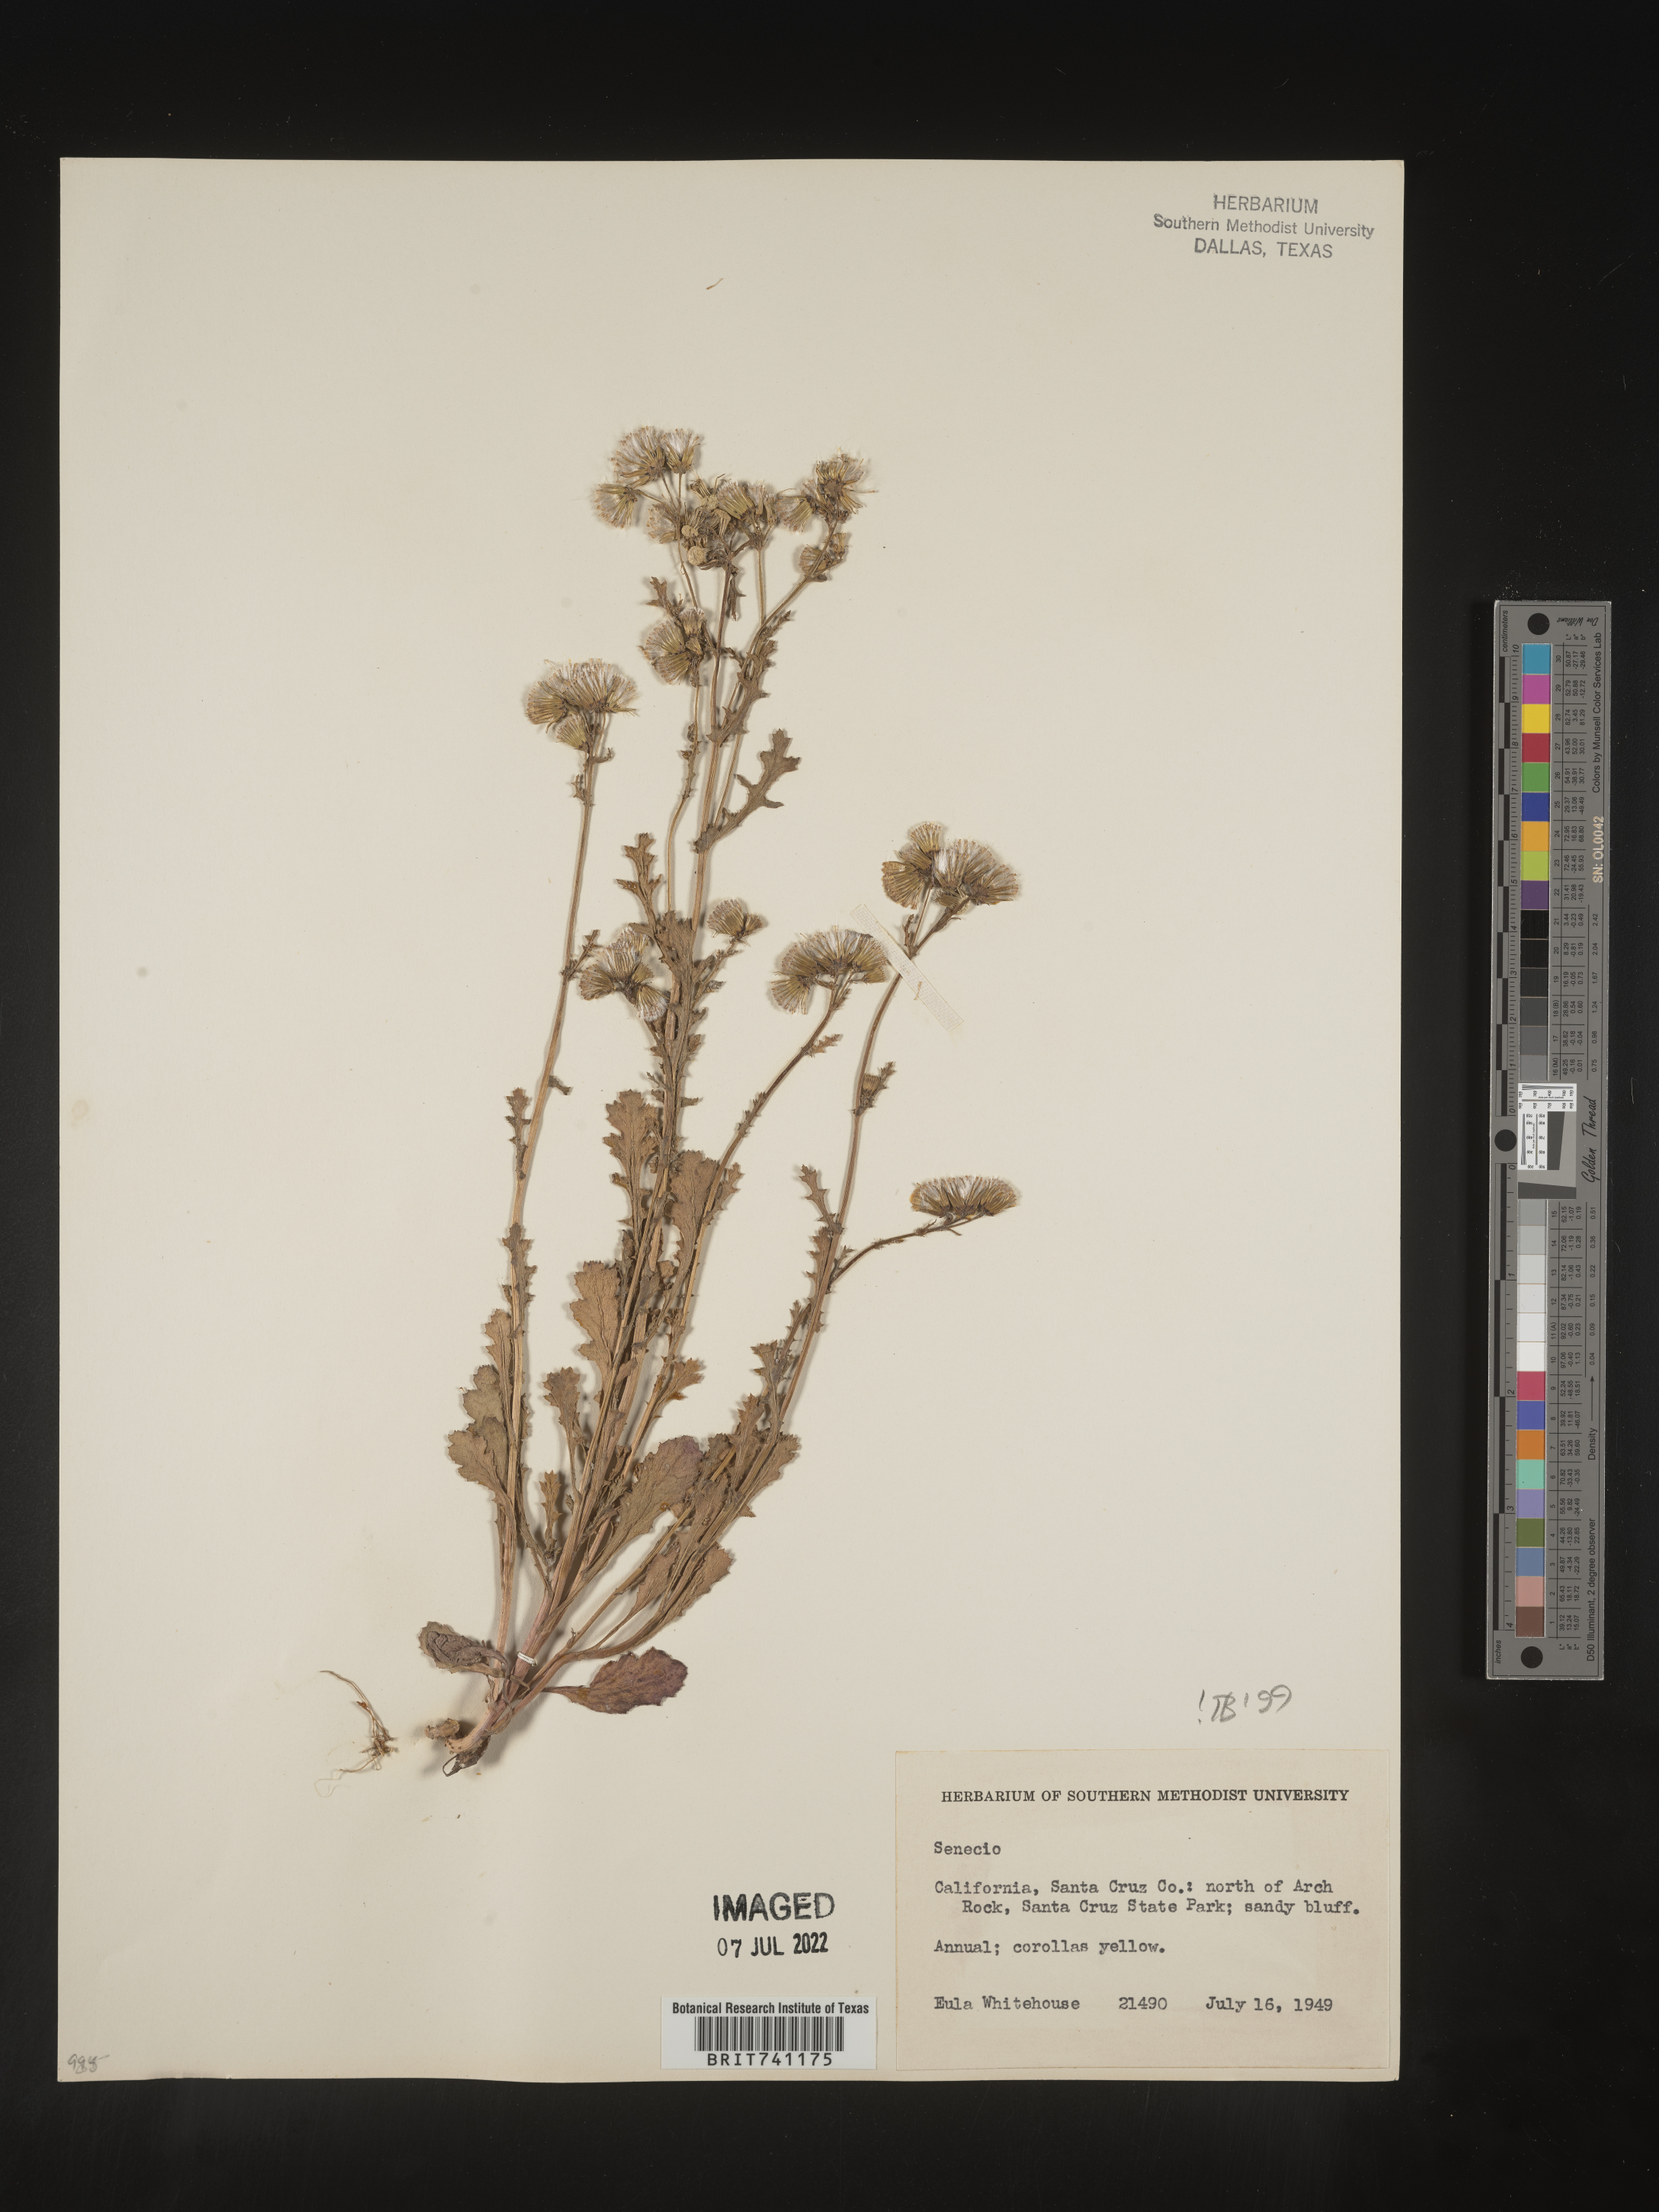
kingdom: Plantae
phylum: Tracheophyta
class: Magnoliopsida
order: Asterales
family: Asteraceae
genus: Senecio
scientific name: Senecio vulgaris
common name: Old-man-in-the-spring
